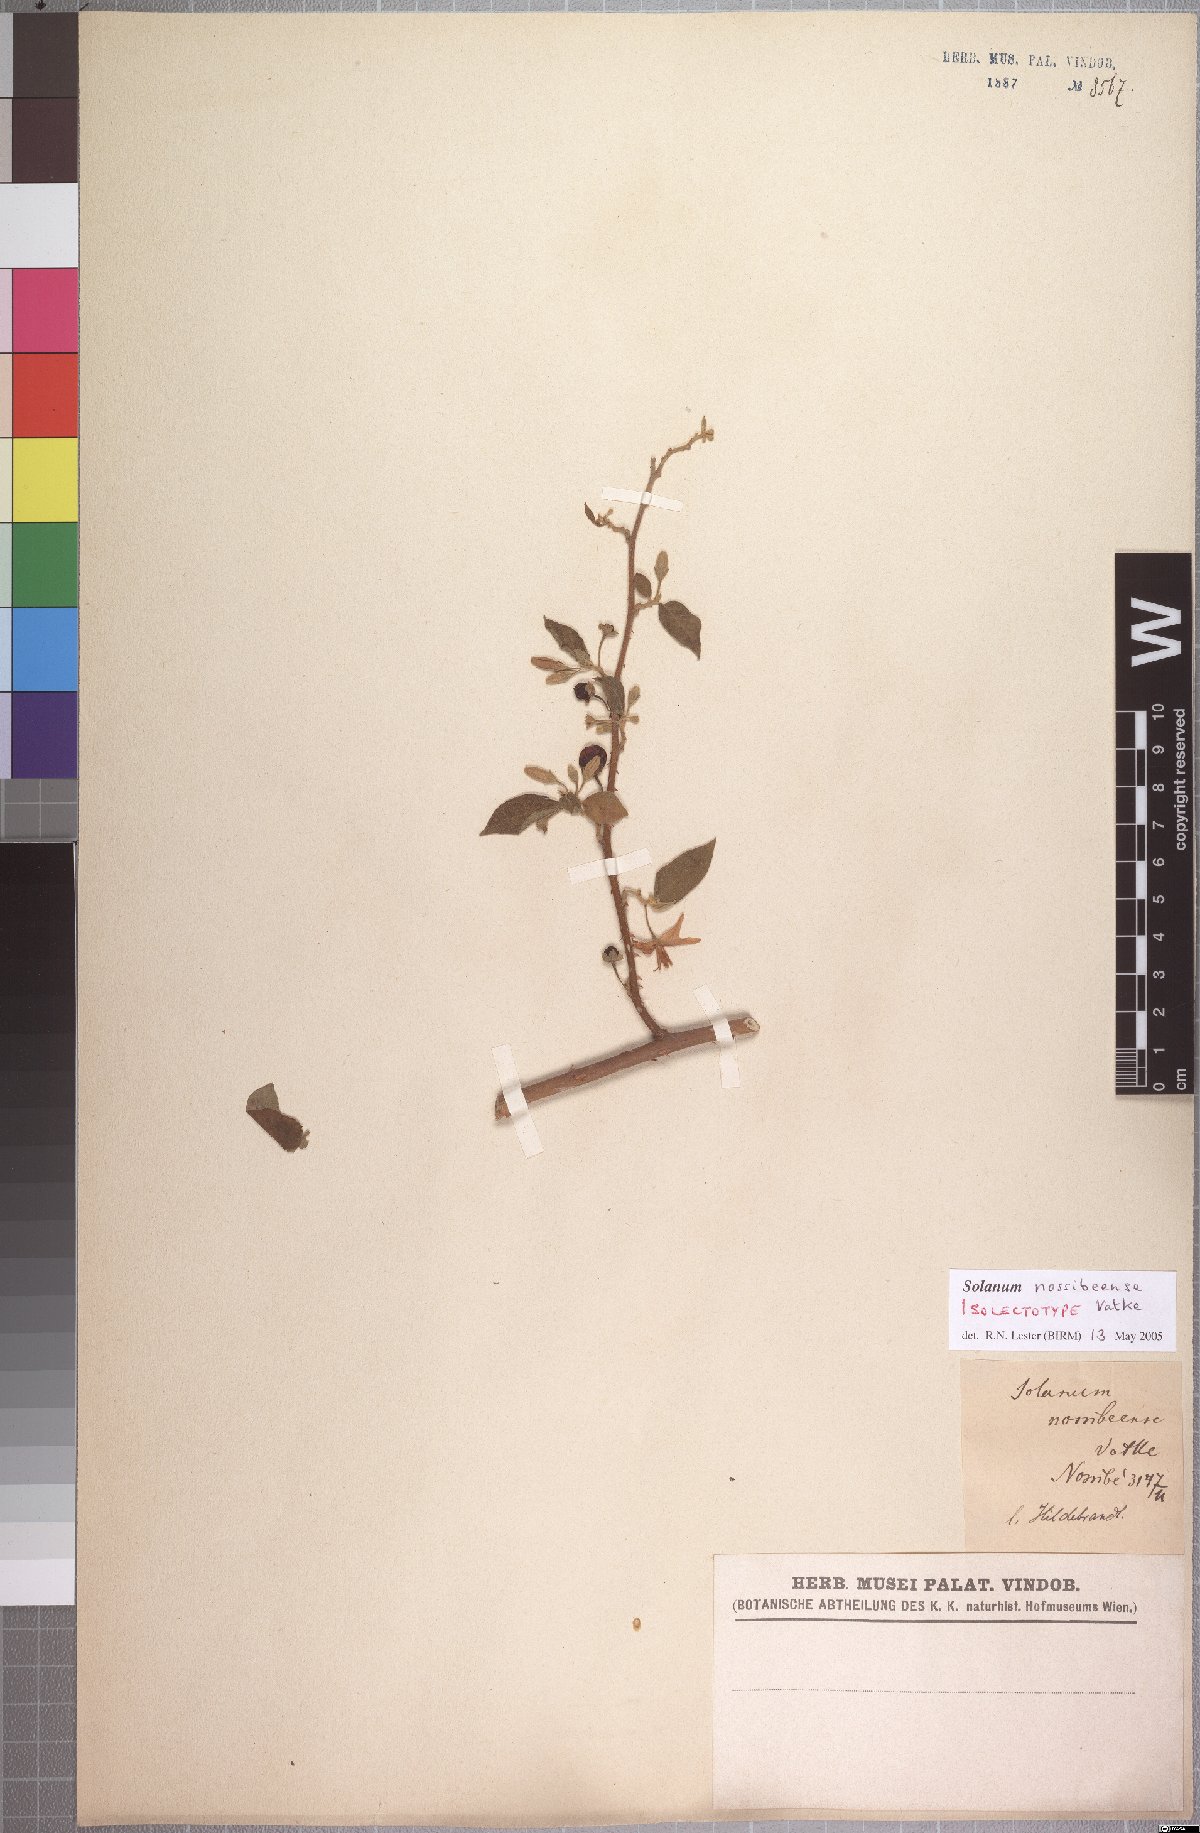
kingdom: Plantae
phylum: Tracheophyta
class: Magnoliopsida
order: Solanales
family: Solanaceae
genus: Solanum
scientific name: Solanum erythracanthum
